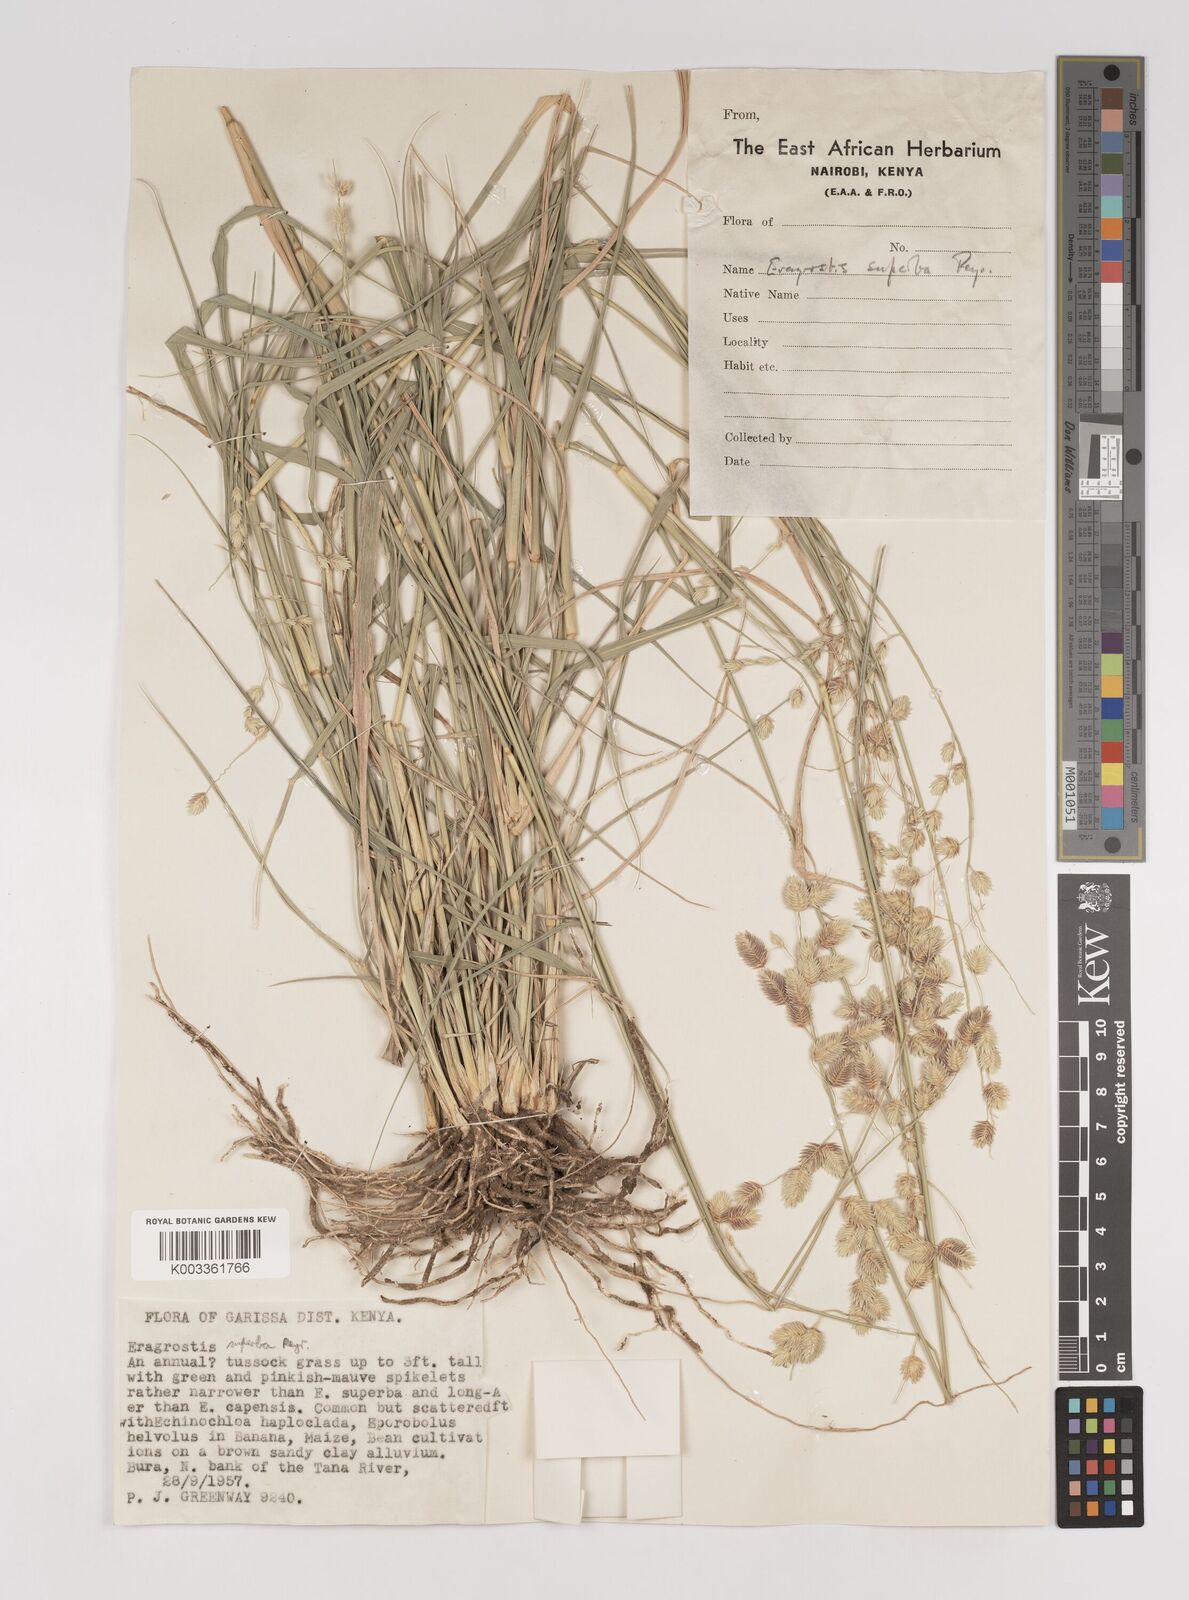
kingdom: Plantae
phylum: Tracheophyta
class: Liliopsida
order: Poales
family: Poaceae
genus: Eragrostis
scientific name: Eragrostis superba
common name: Wilman lovegrass
